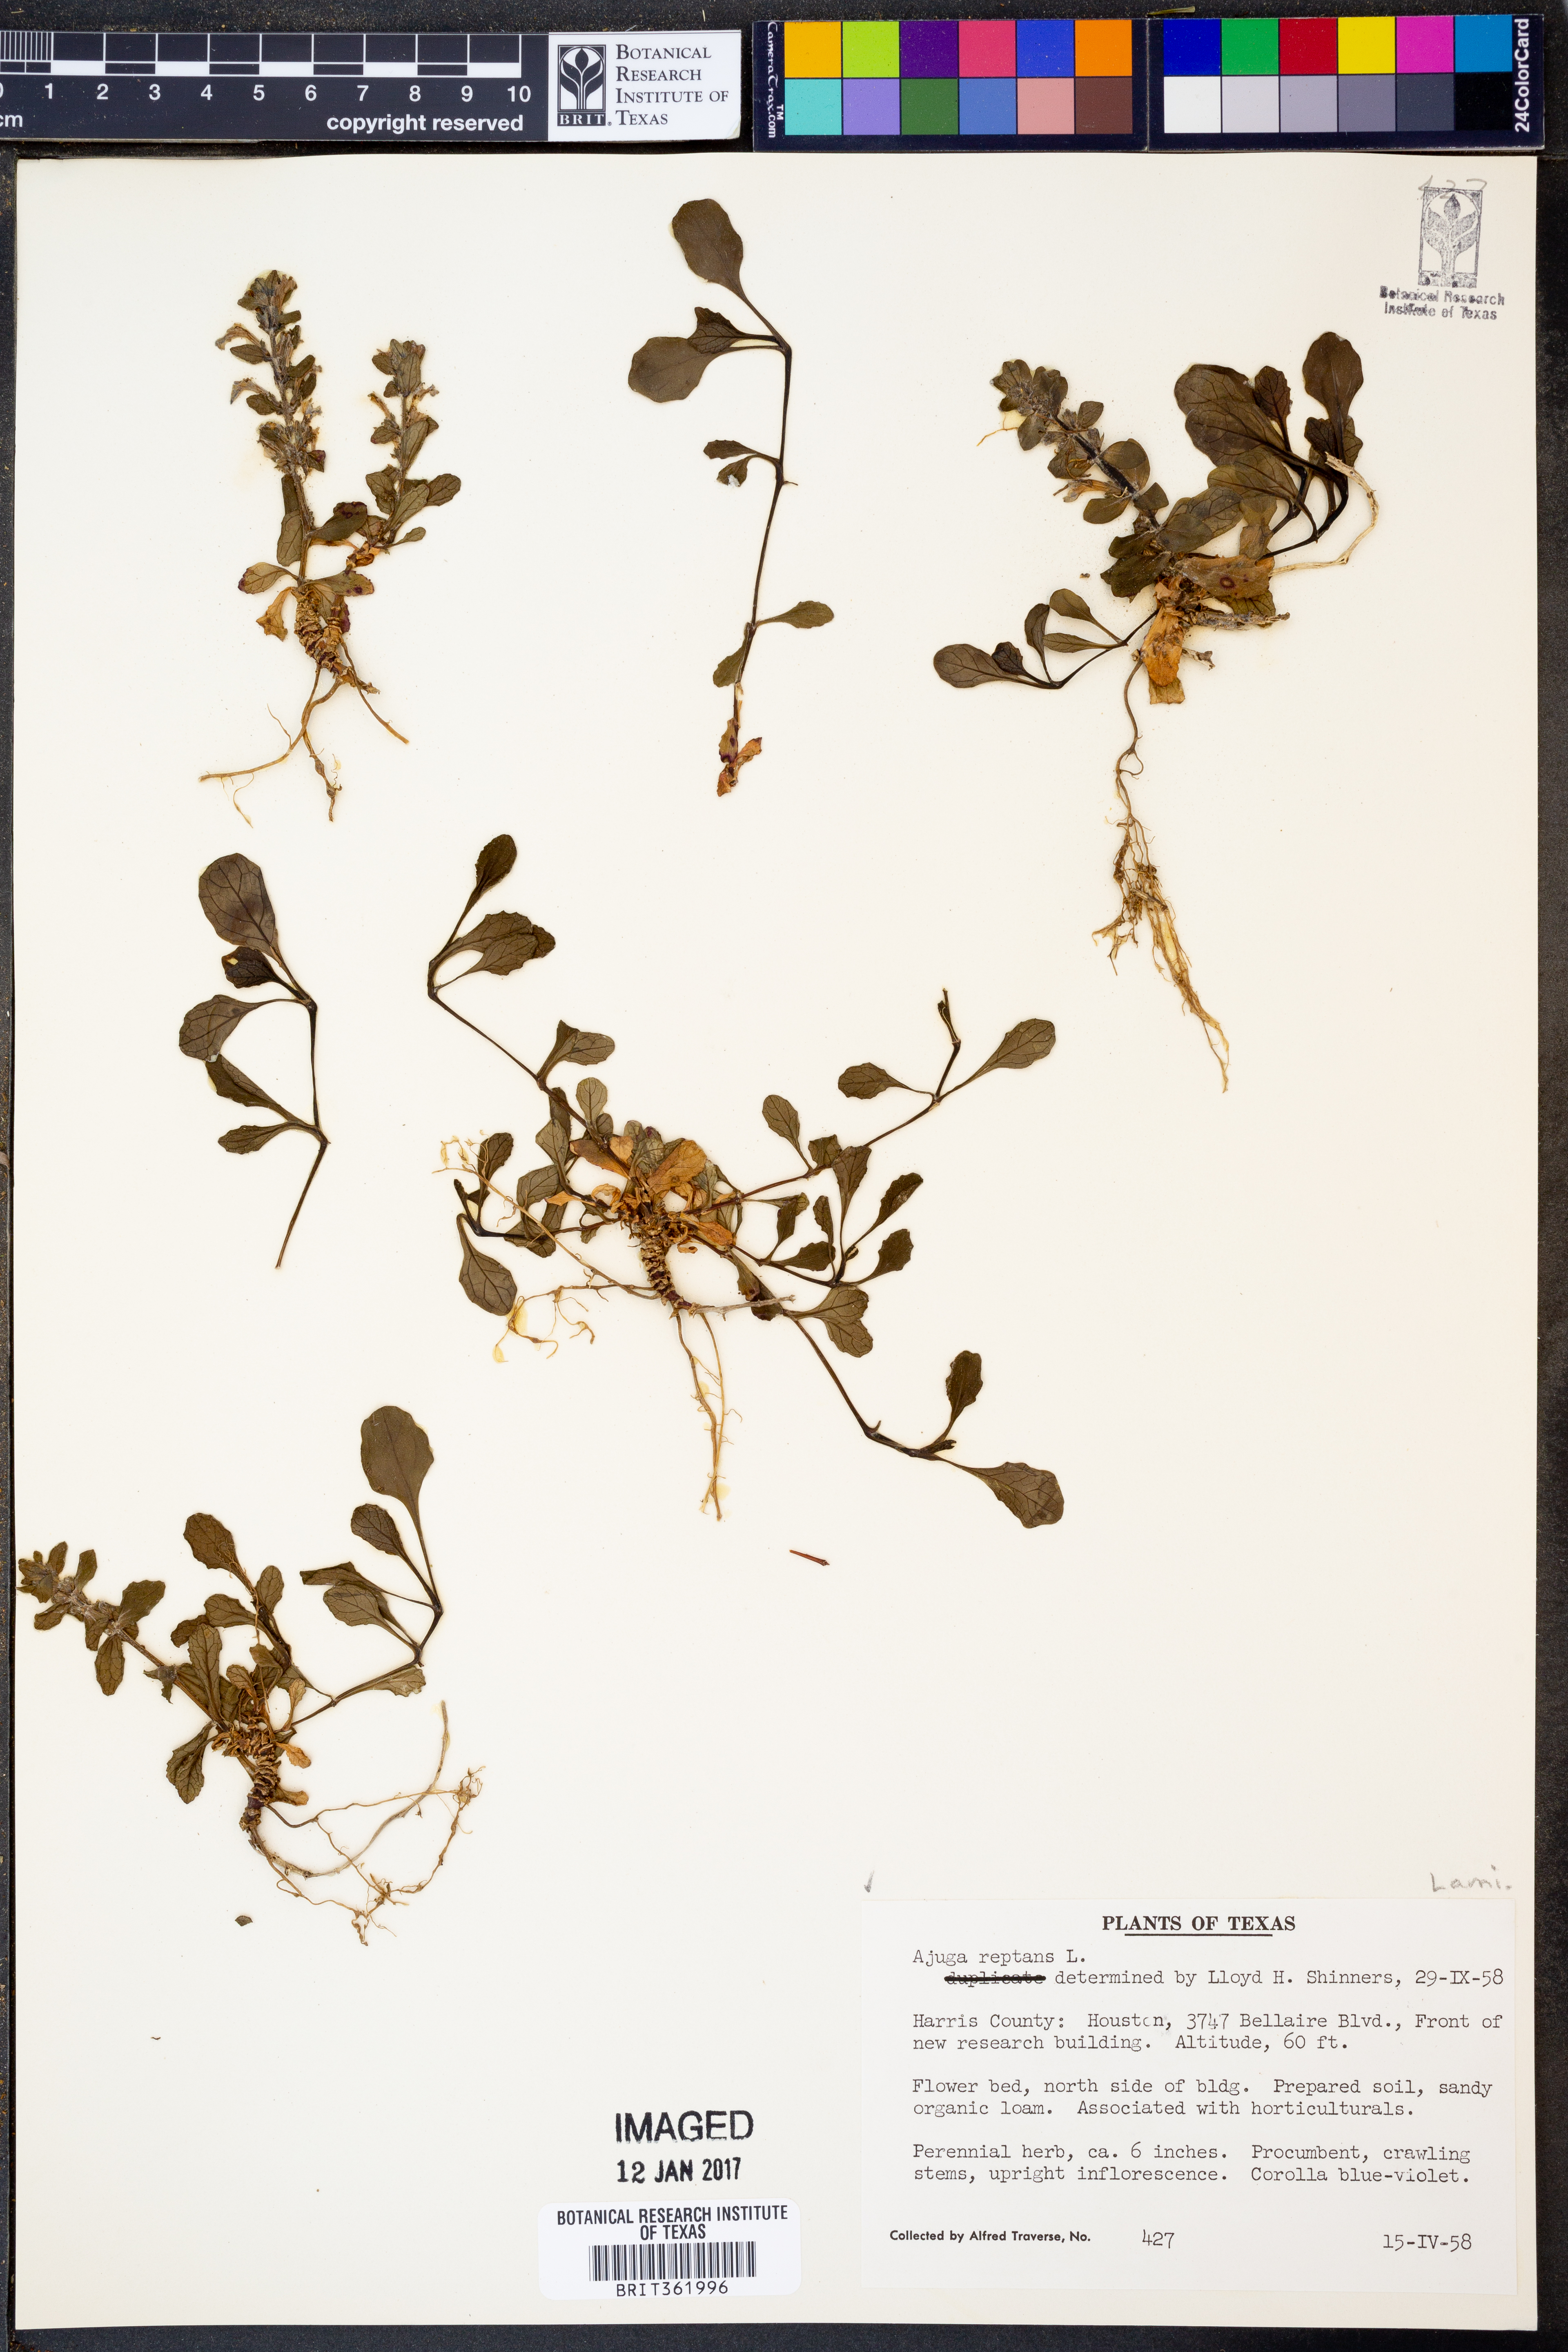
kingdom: Plantae
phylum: Tracheophyta
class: Magnoliopsida
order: Lamiales
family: Lamiaceae
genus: Ajuga
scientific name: Ajuga reptans
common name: Bugle
